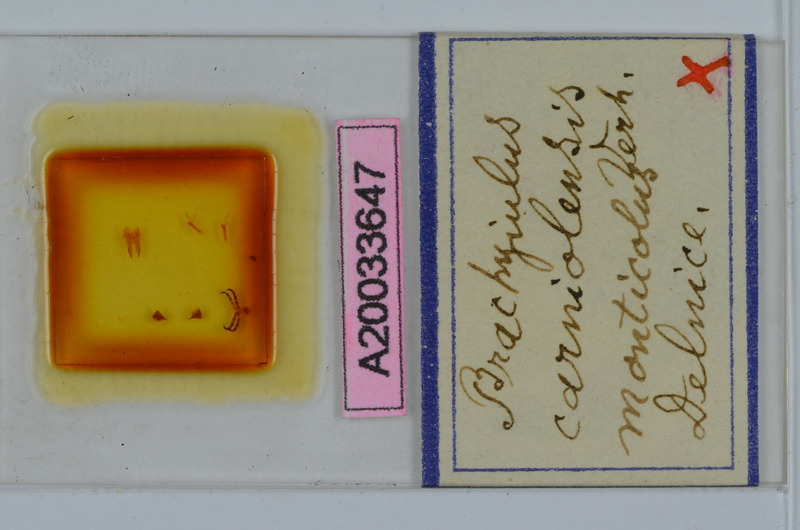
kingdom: Animalia
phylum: Arthropoda
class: Diplopoda
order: Julida
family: Julidae
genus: Megaphyllum
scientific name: Megaphyllum carniolense
